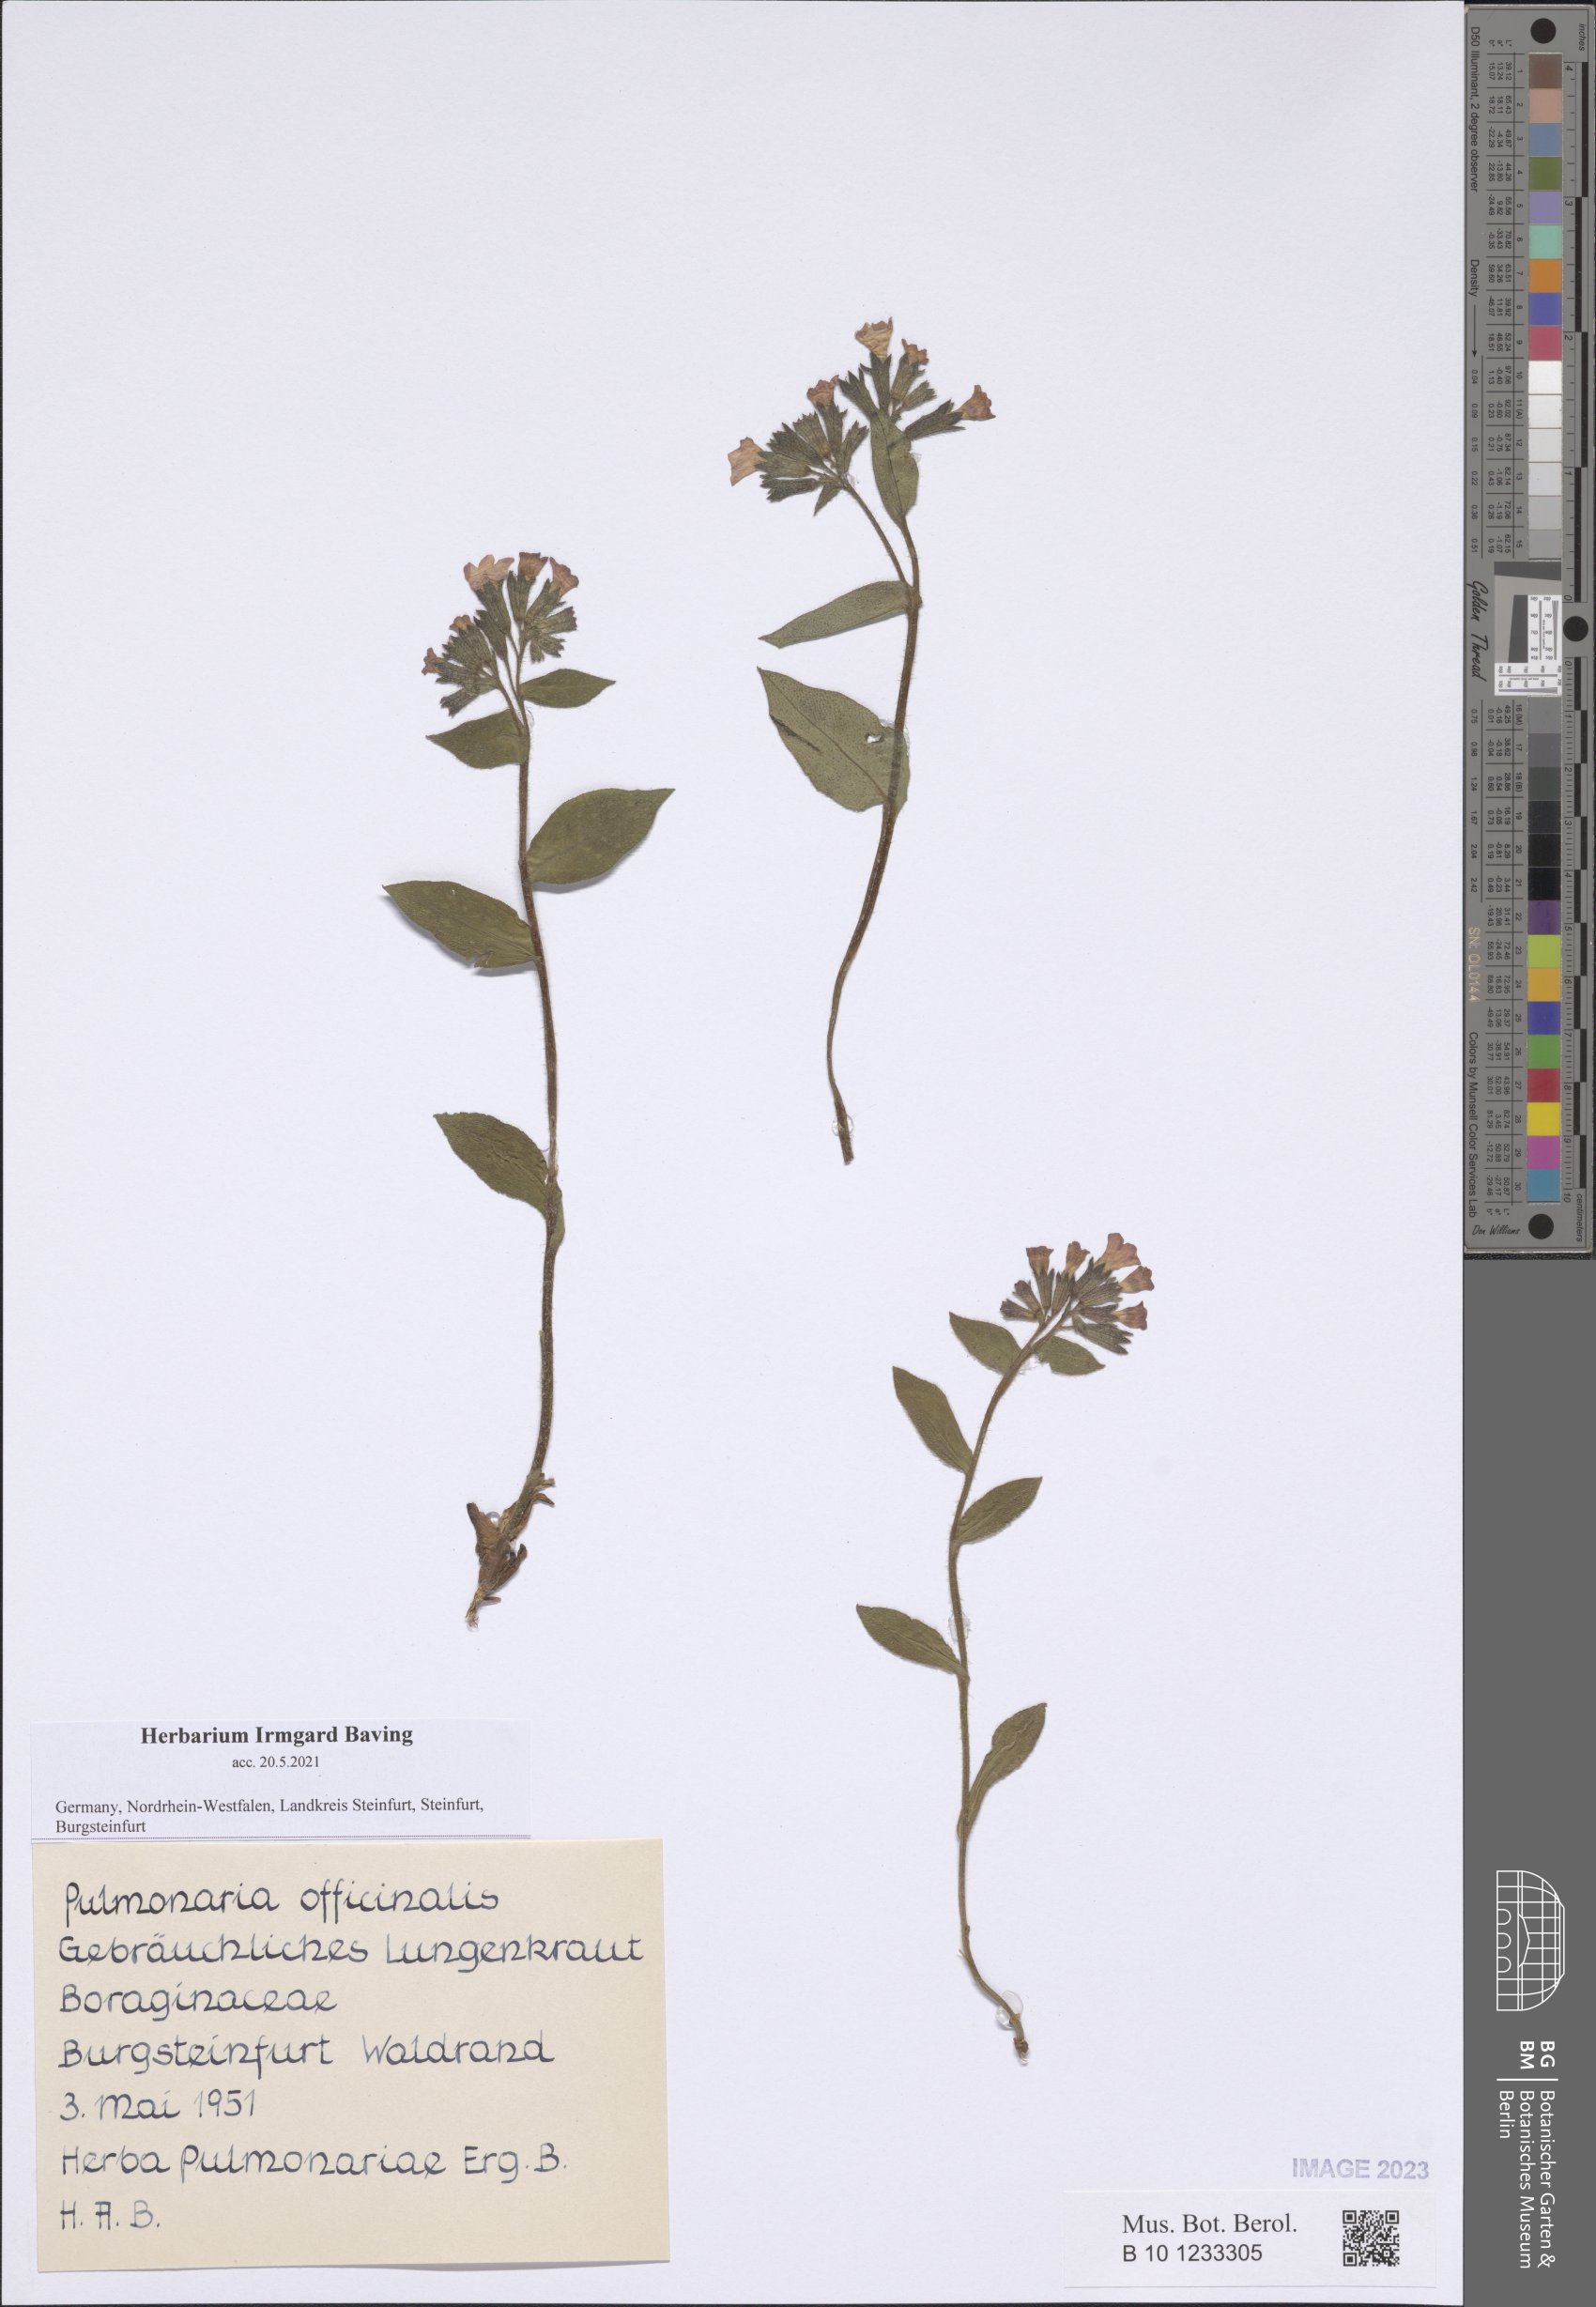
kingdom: Plantae
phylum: Tracheophyta
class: Magnoliopsida
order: Boraginales
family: Boraginaceae
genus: Pulmonaria
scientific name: Pulmonaria officinalis
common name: Lungwort
